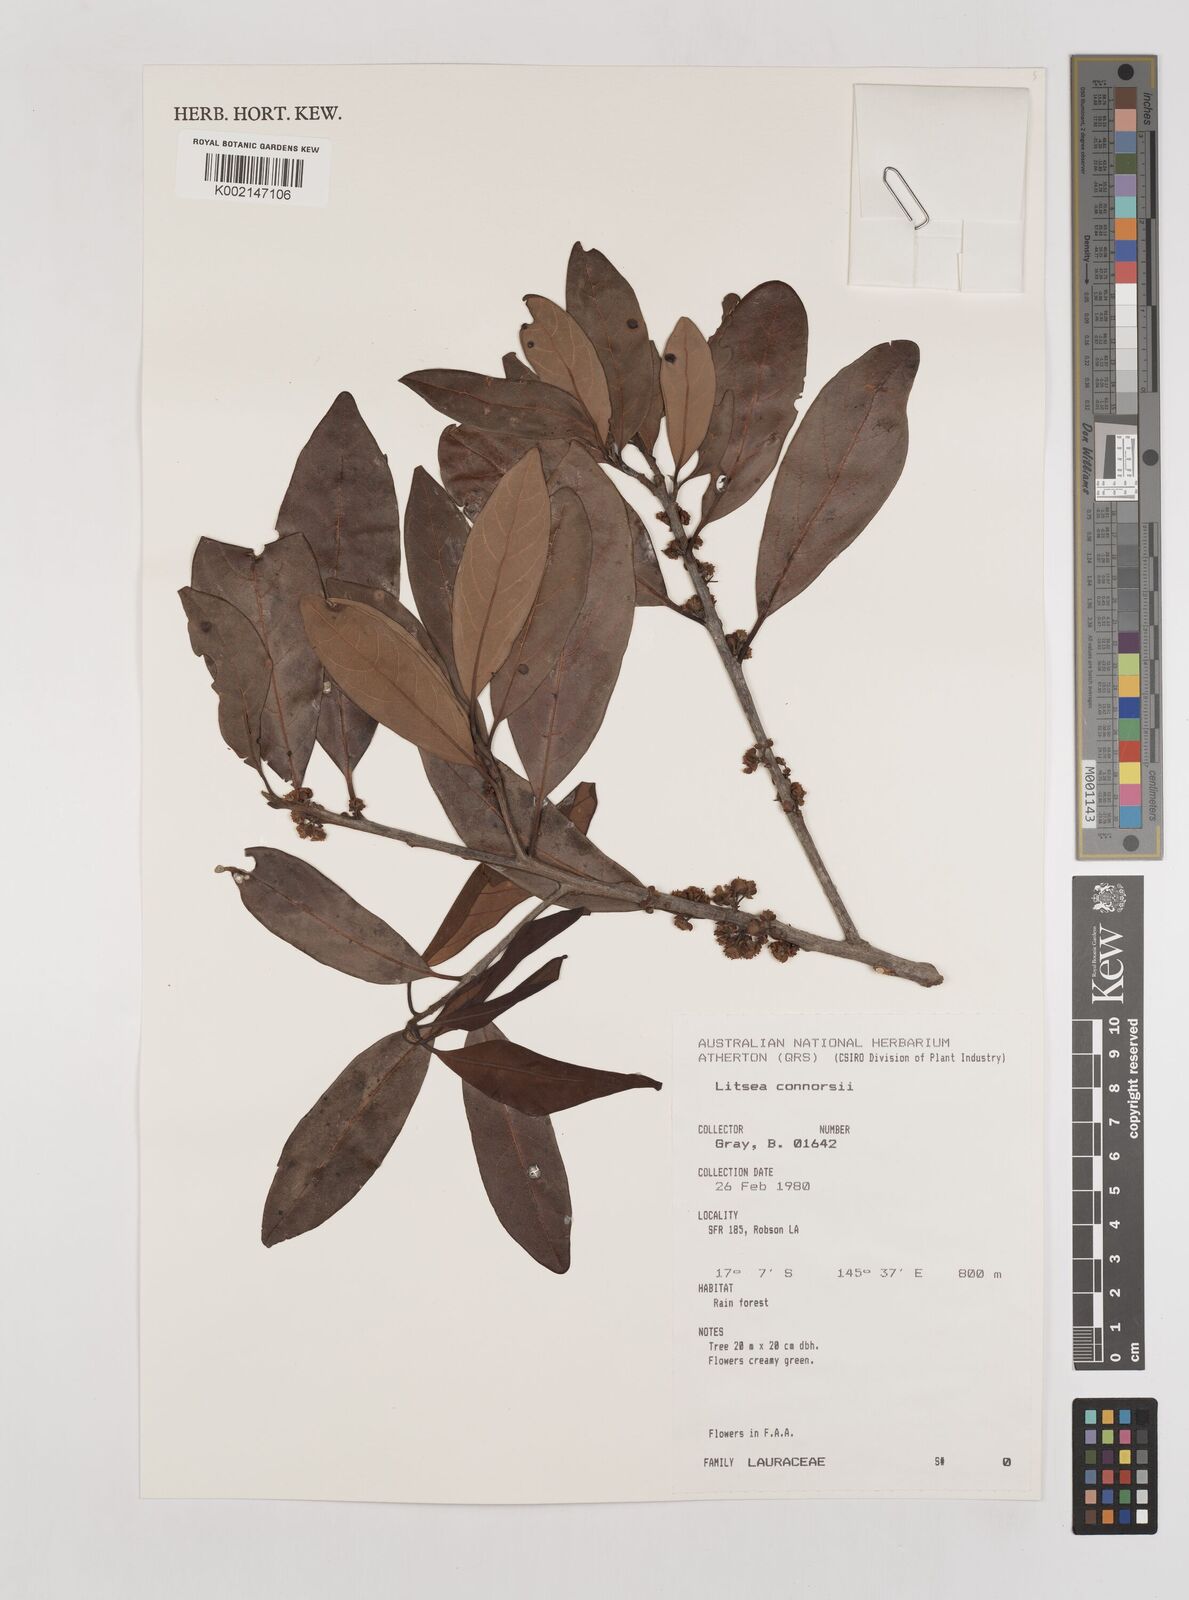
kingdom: Plantae
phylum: Tracheophyta
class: Magnoliopsida
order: Laurales
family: Lauraceae
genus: Litsea
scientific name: Litsea connorsii
